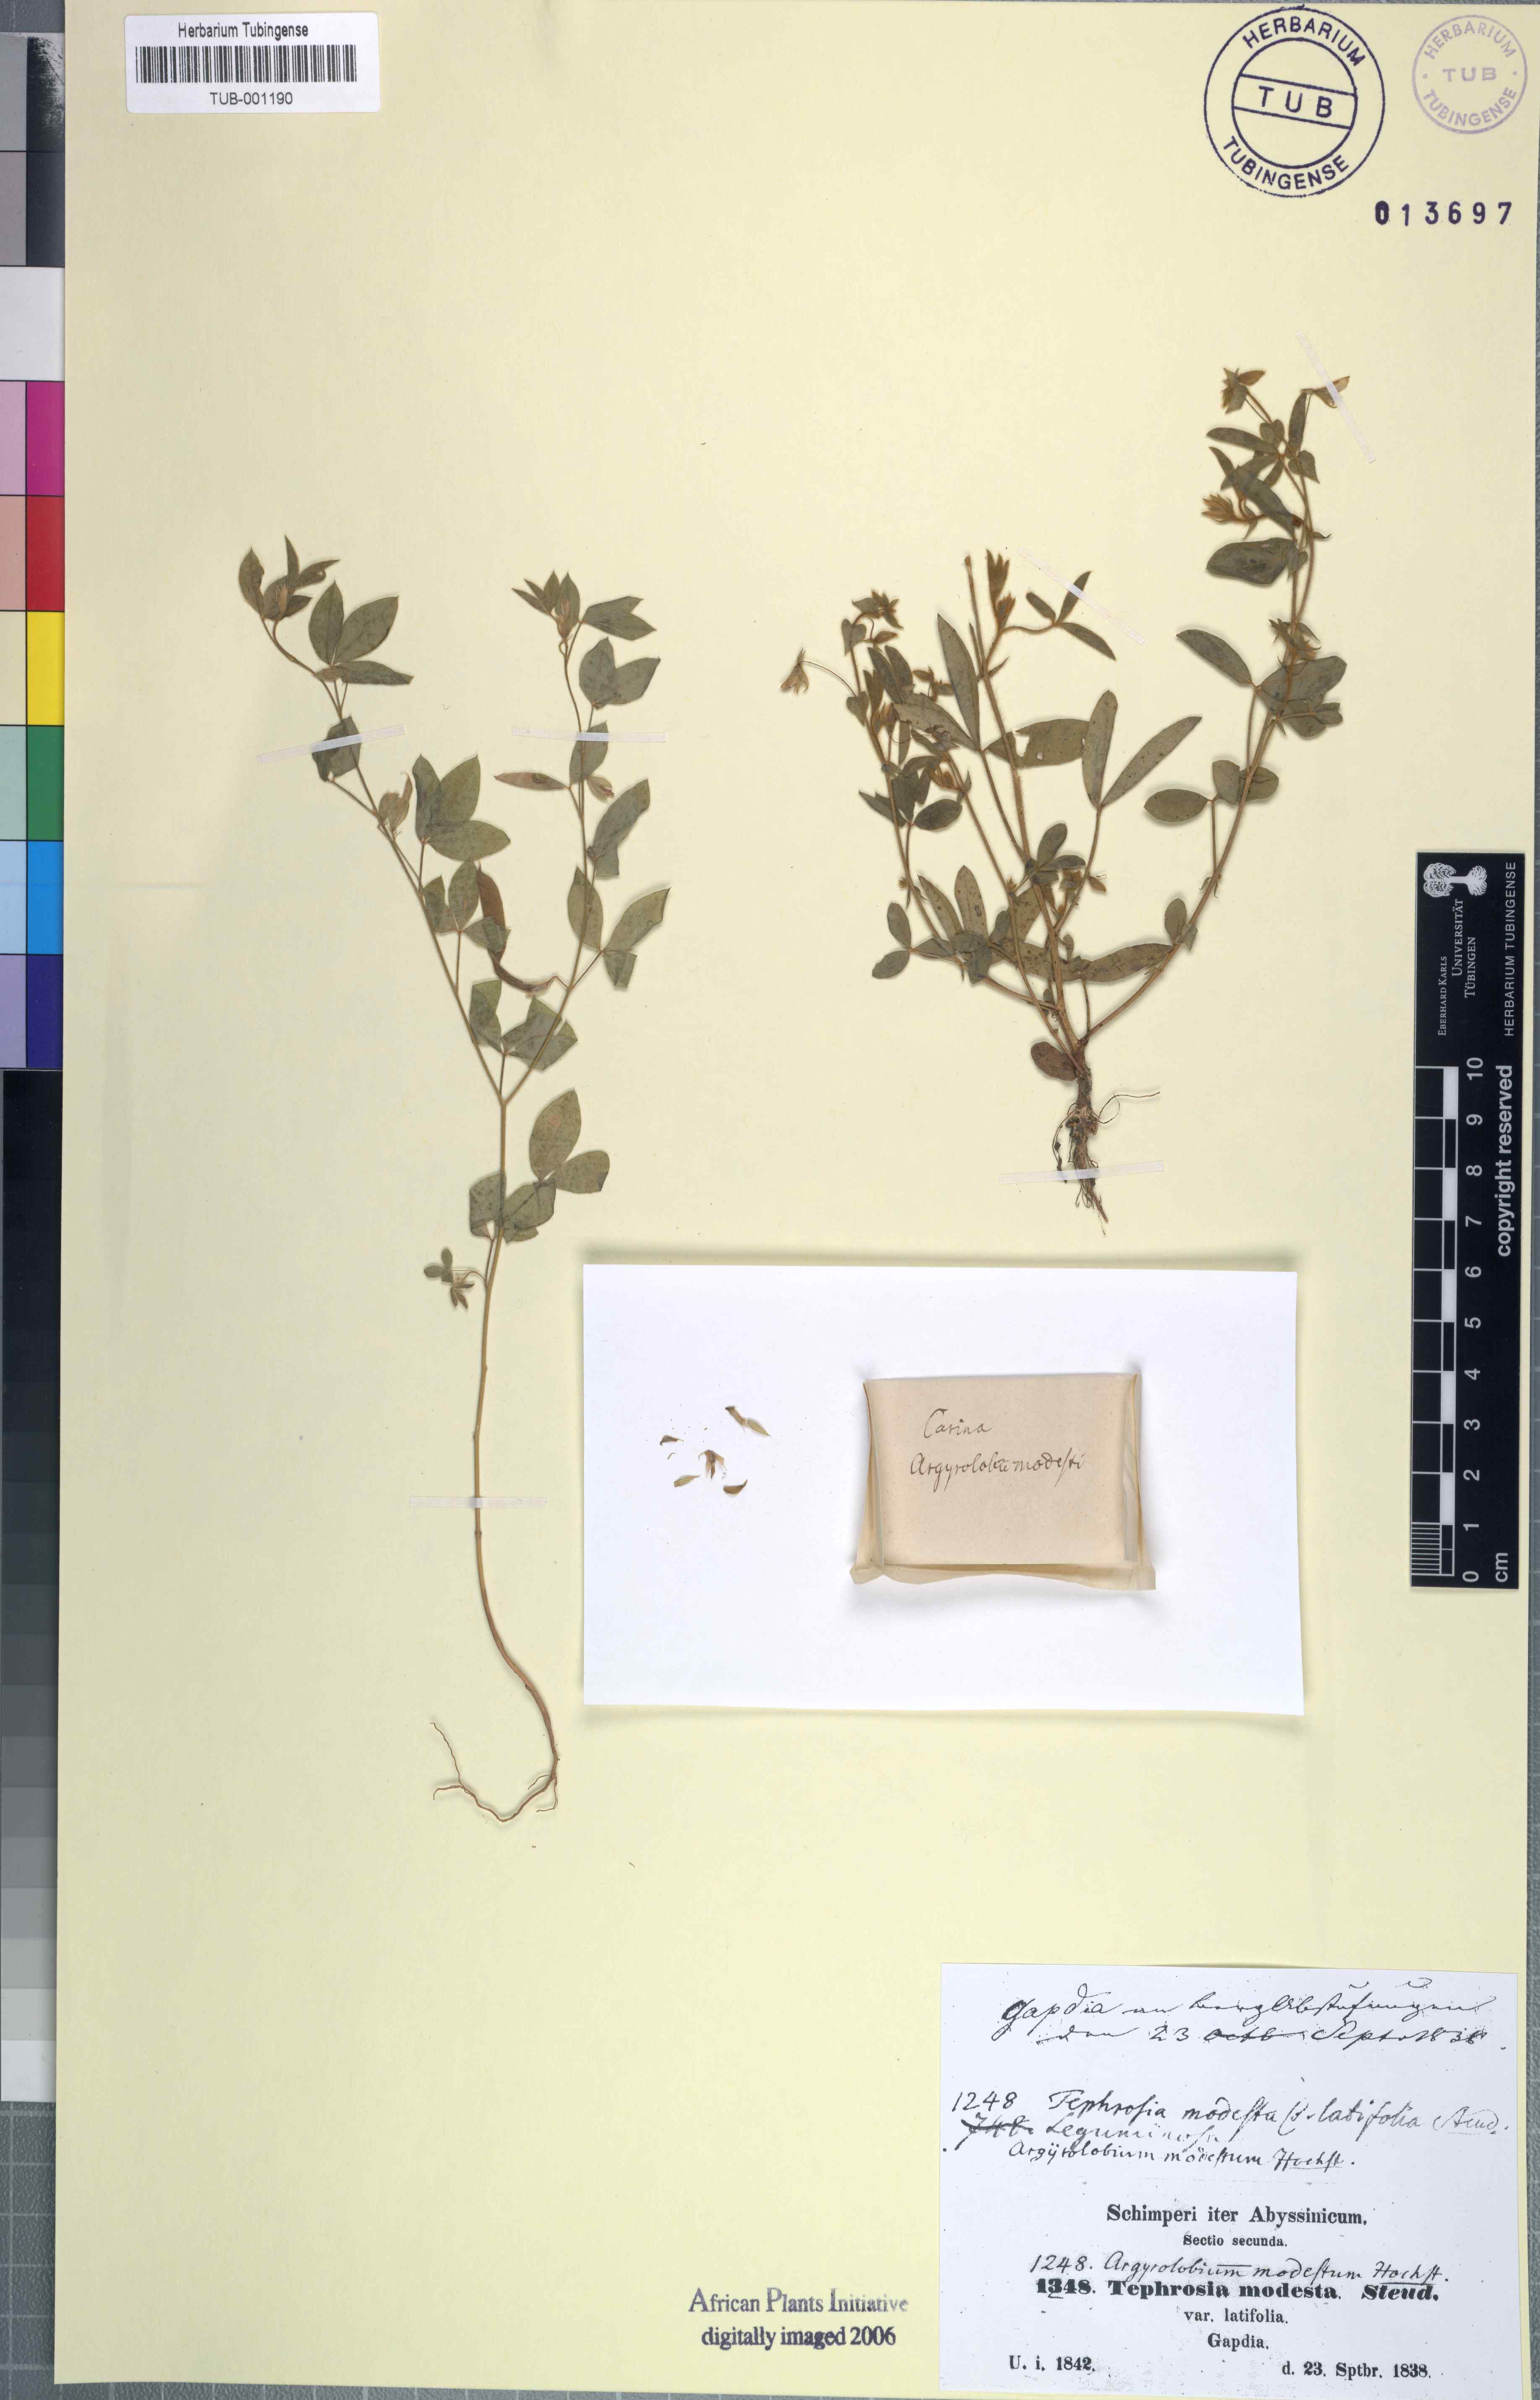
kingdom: Plantae
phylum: Tracheophyta
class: Magnoliopsida
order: Fabales
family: Fabaceae
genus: Argyrolobium
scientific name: Argyrolobium arabicum
